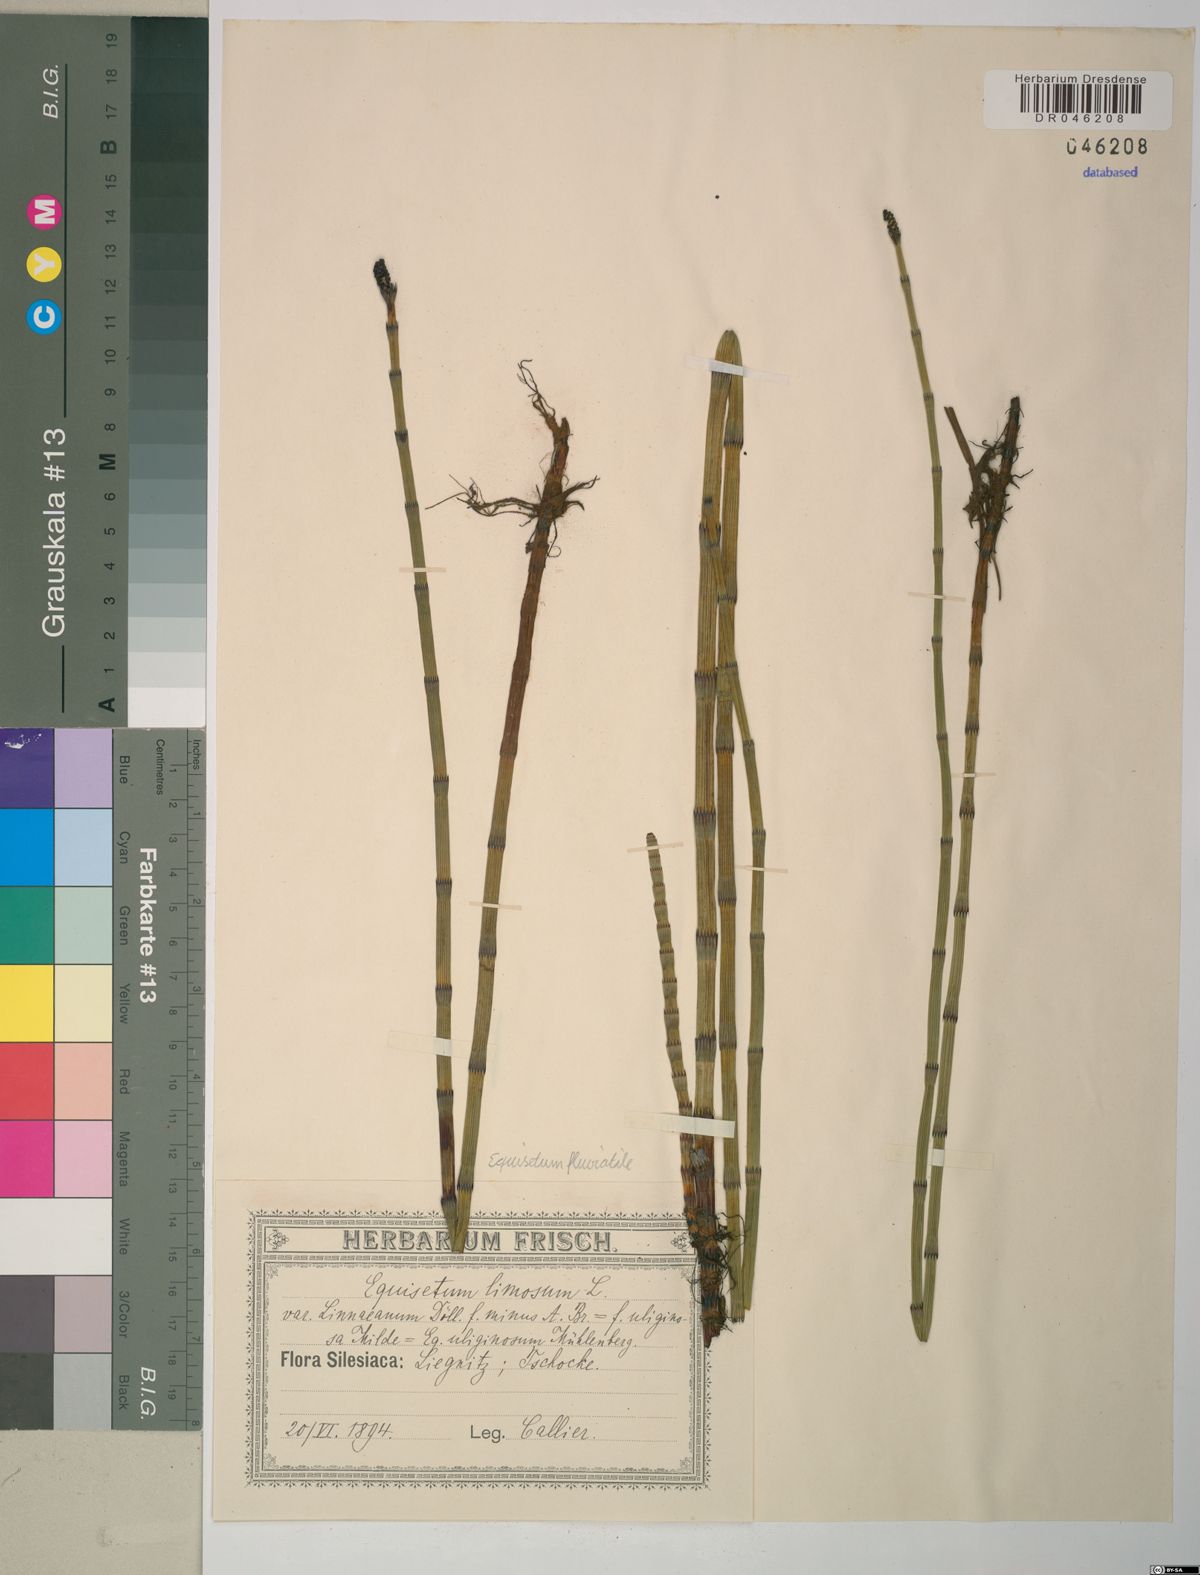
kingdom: Plantae
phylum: Tracheophyta
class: Polypodiopsida
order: Equisetales
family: Equisetaceae
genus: Equisetum
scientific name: Equisetum fluviatile
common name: Water horsetail
